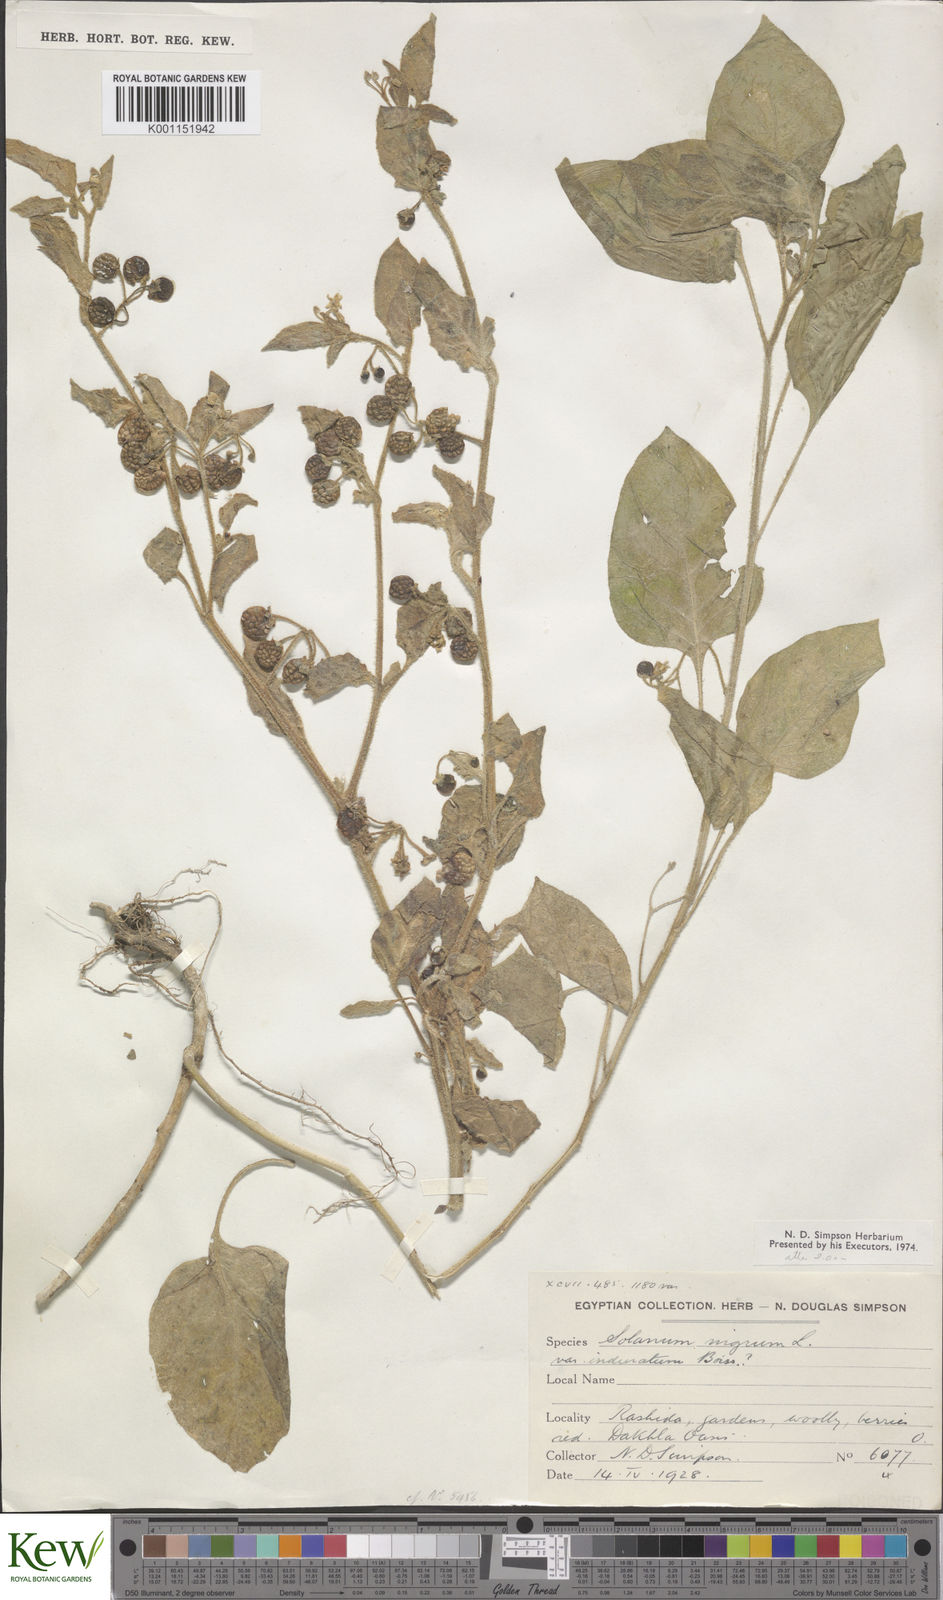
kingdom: Plantae
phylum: Tracheophyta
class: Magnoliopsida
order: Solanales
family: Solanaceae
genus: Solanum
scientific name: Solanum
